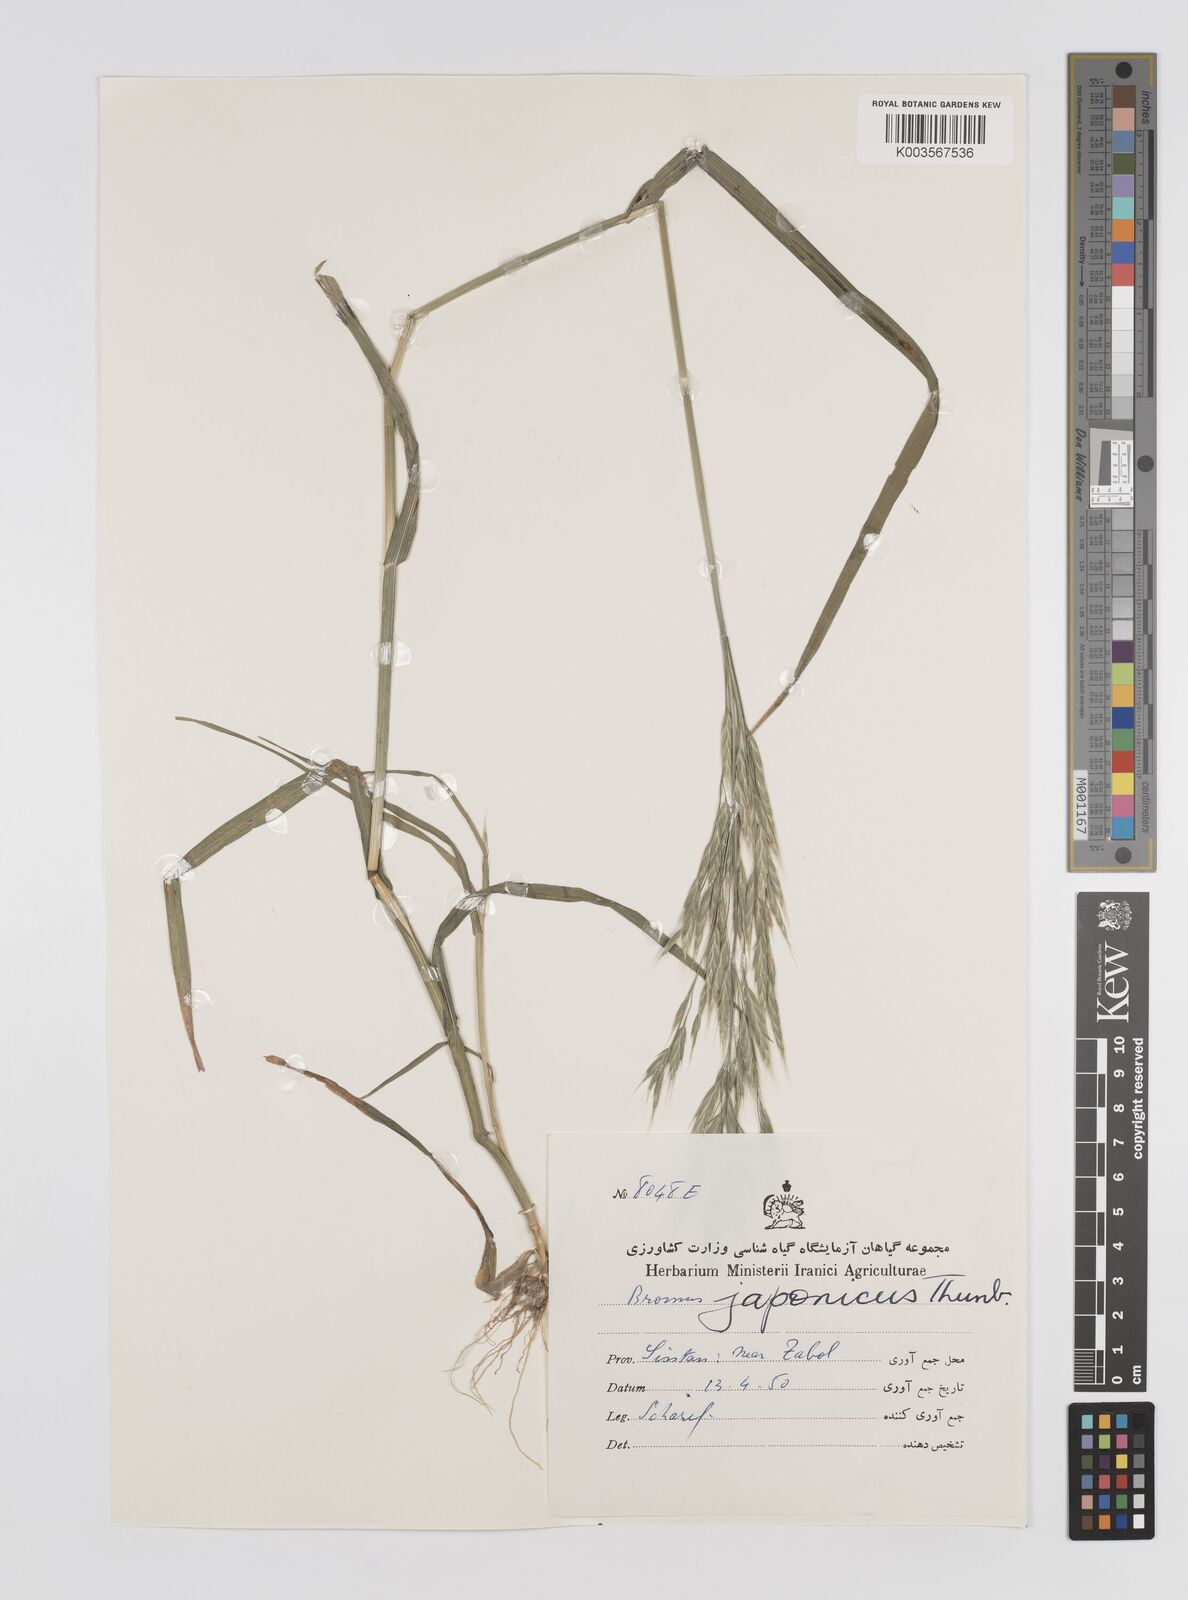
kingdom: Plantae
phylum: Tracheophyta
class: Liliopsida
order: Poales
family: Poaceae
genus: Bromus
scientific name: Bromus pectinatus
